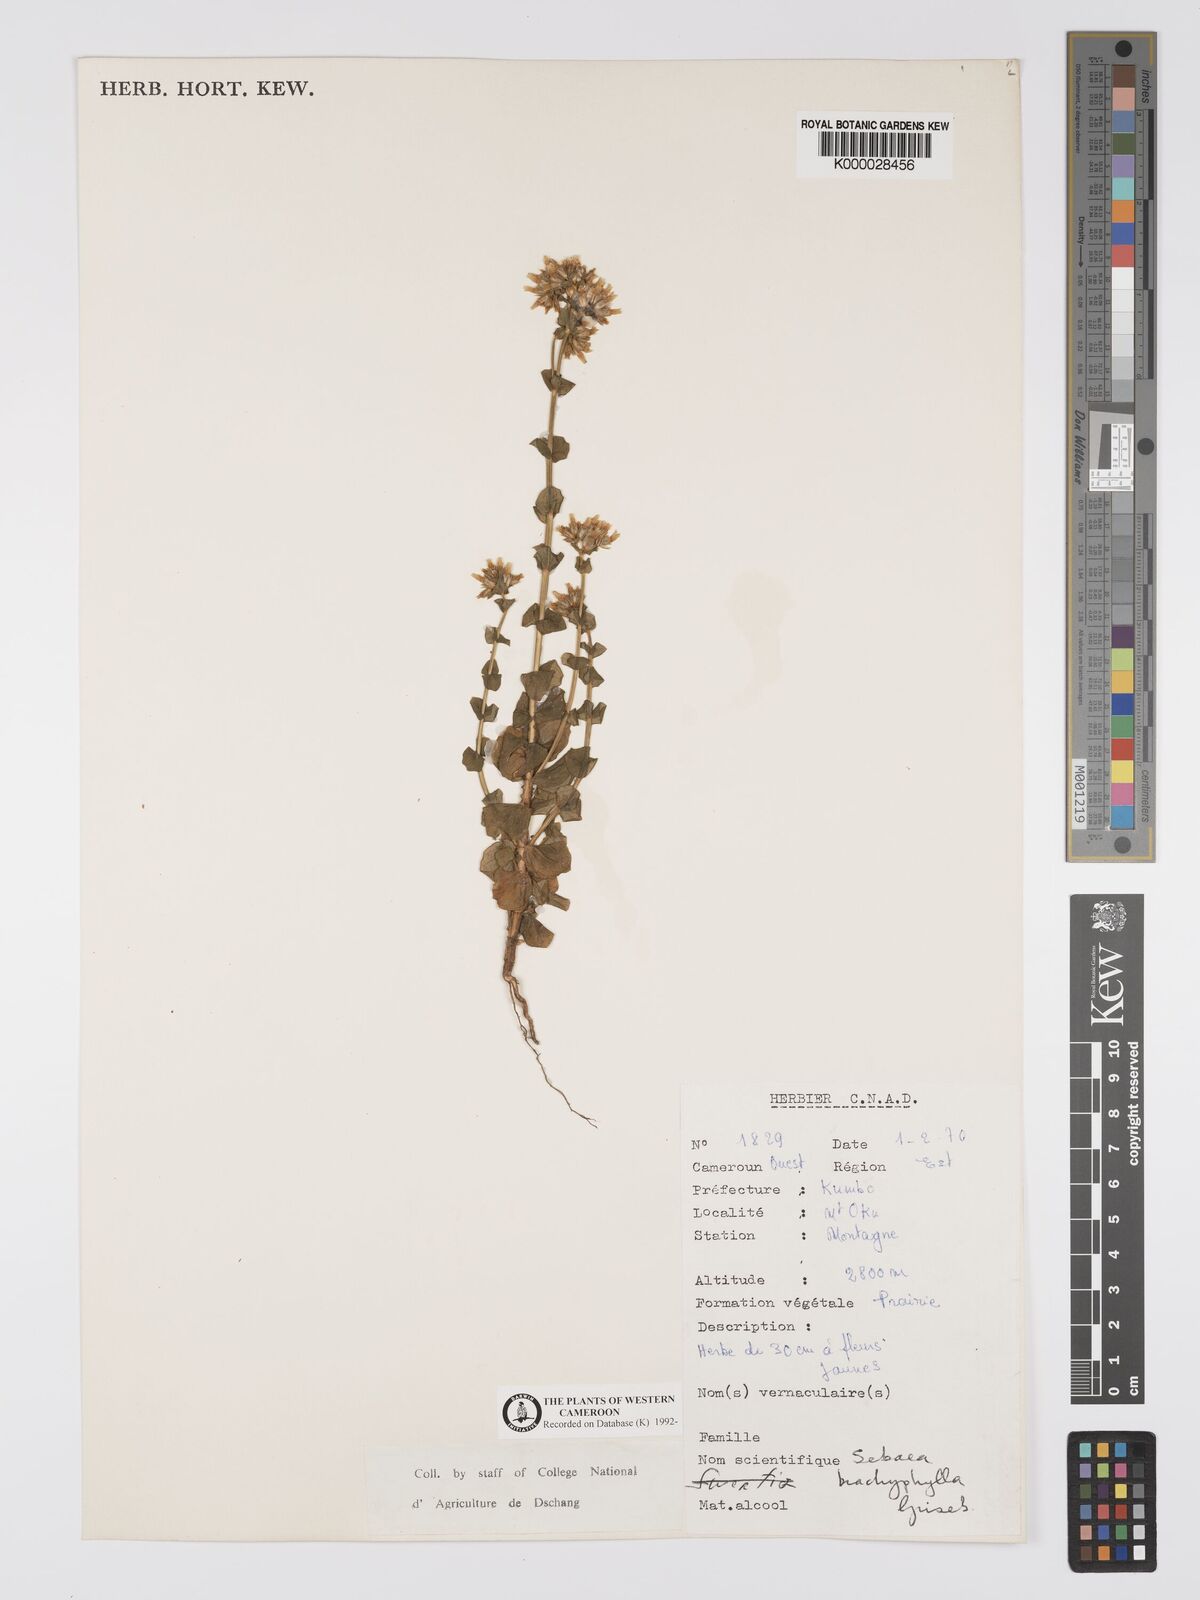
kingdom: Plantae
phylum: Tracheophyta
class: Magnoliopsida
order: Gentianales
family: Gentianaceae
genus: Sebaea
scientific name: Sebaea brachyphylla
